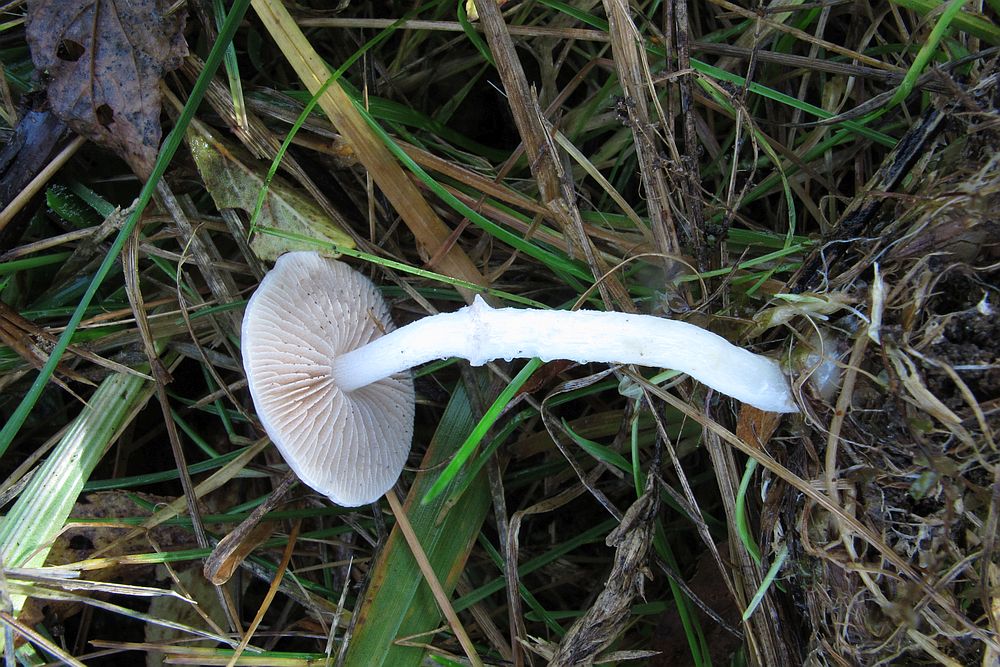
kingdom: Fungi
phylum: Basidiomycota
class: Agaricomycetes
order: Agaricales
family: Strophariaceae
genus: Stropharia
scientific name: Stropharia inuncta
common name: lillabrun bredblad
